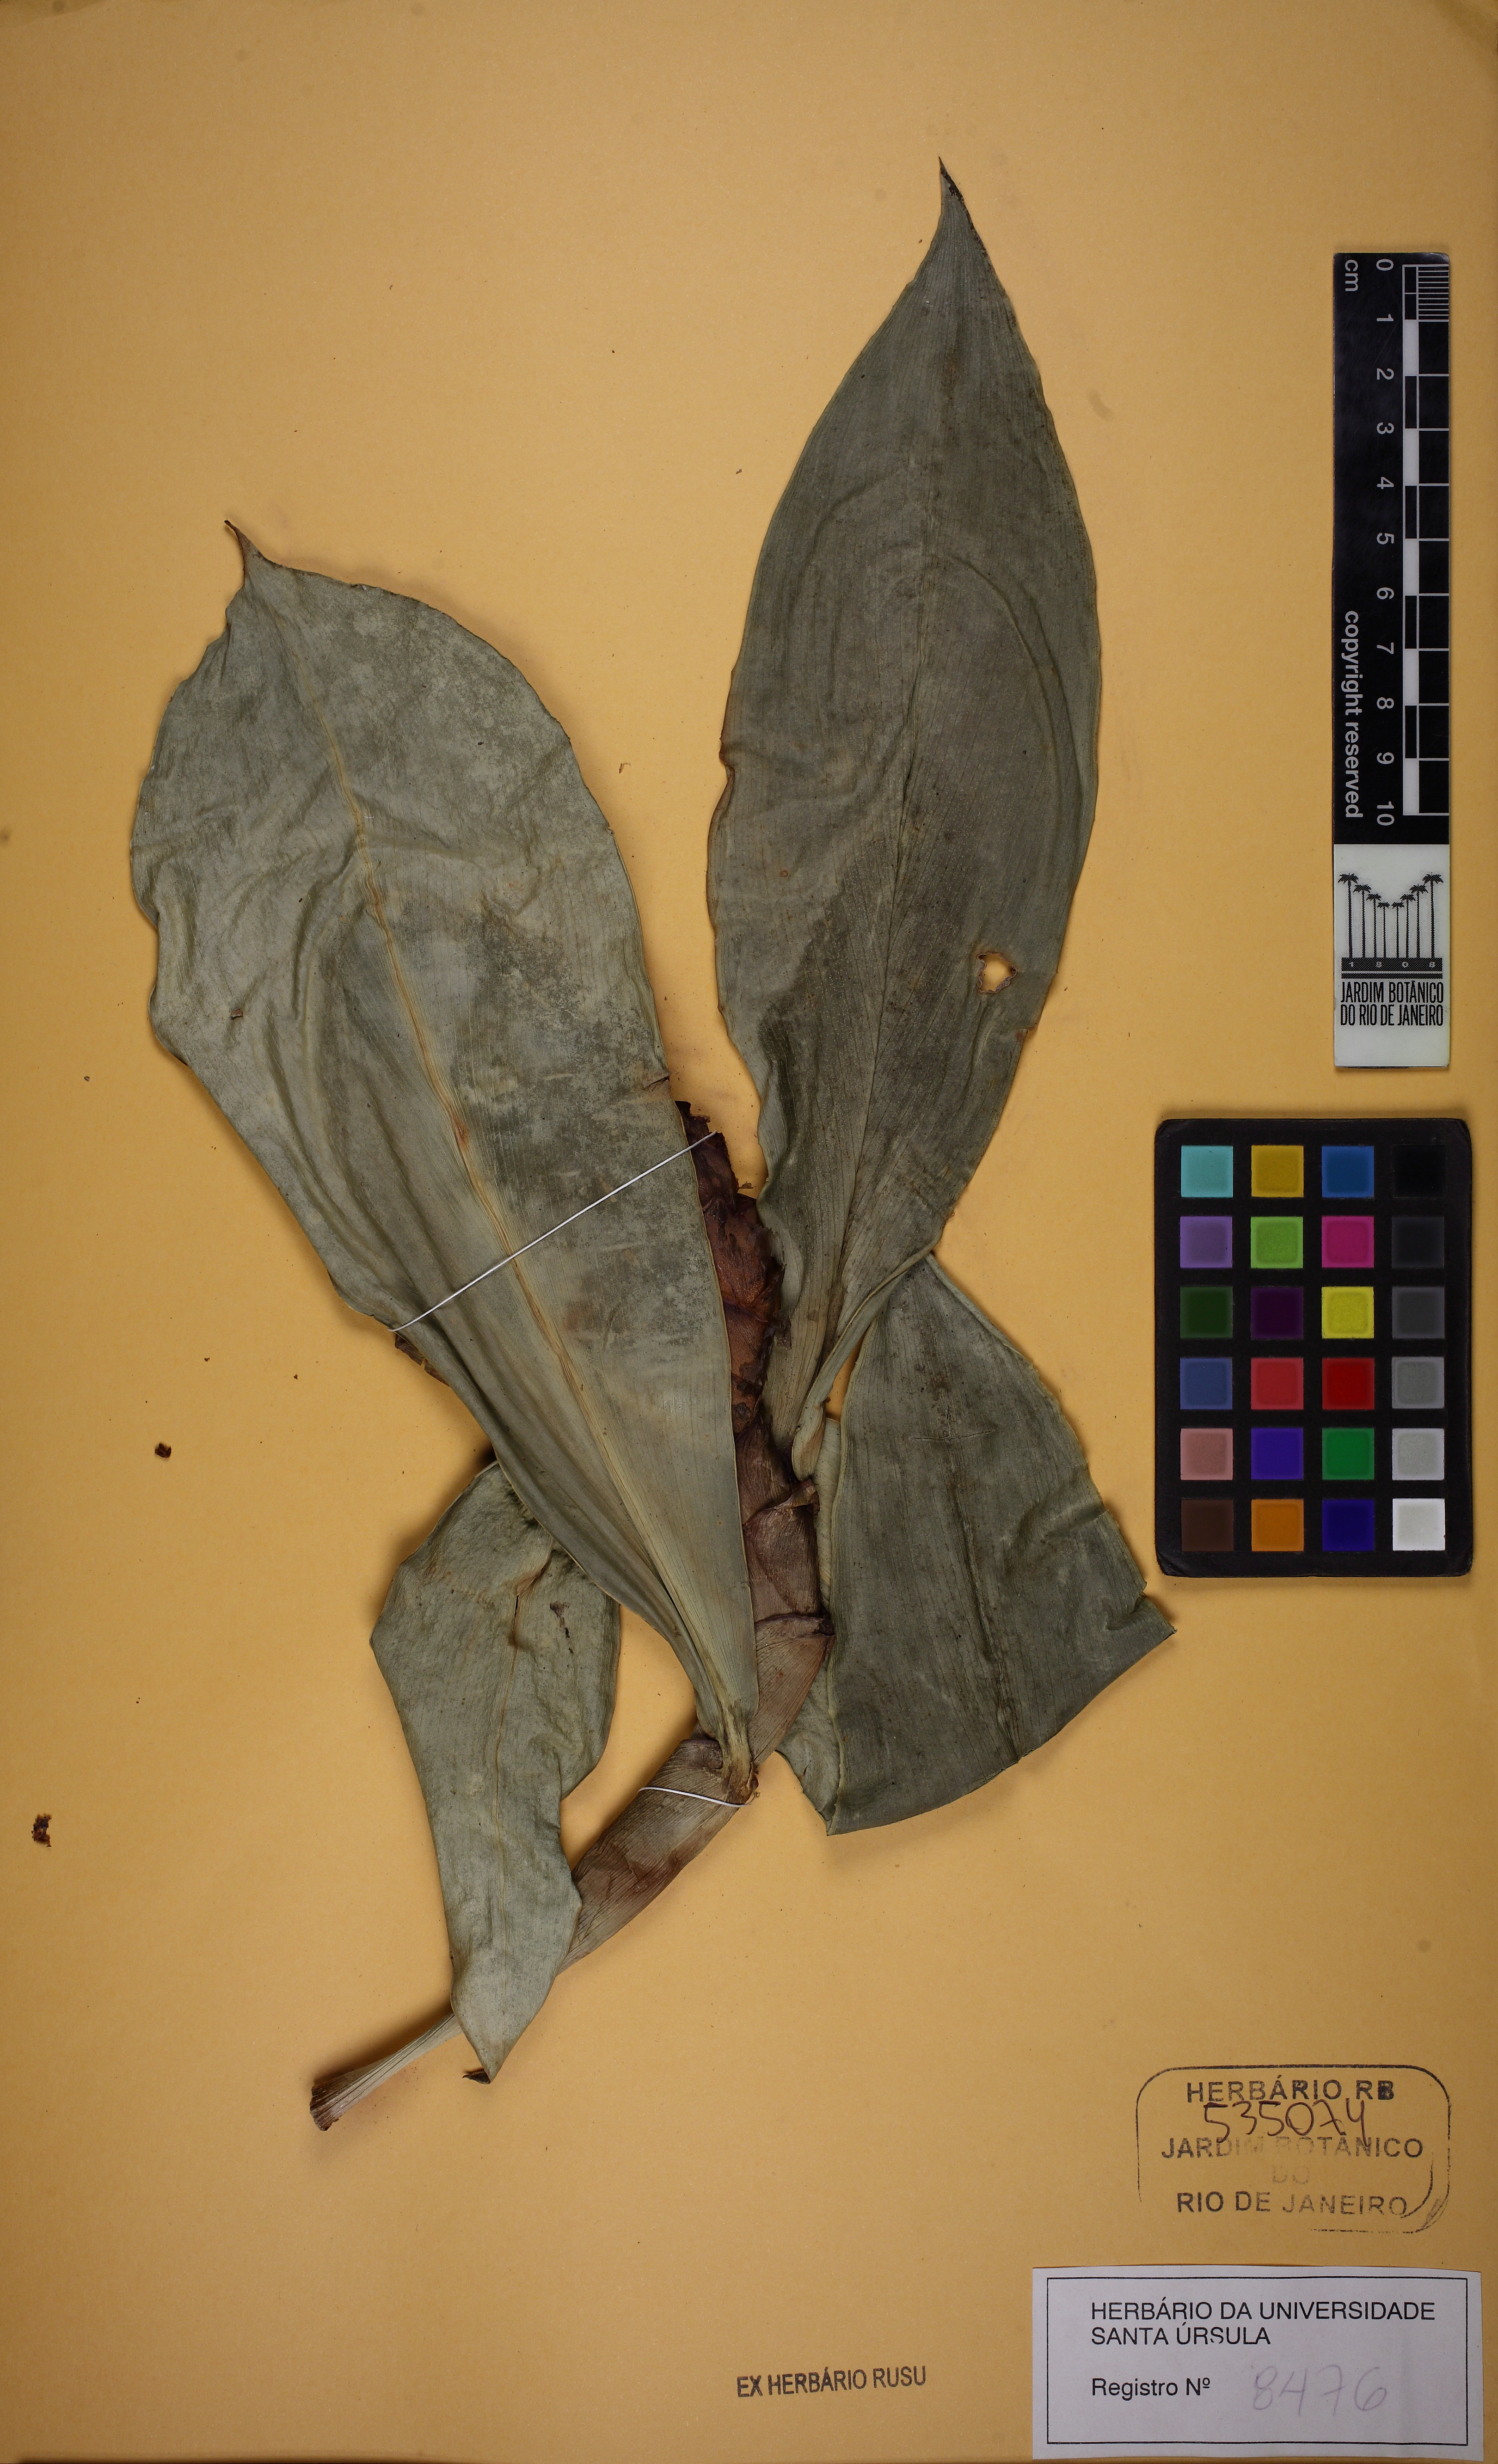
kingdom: Plantae
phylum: Tracheophyta
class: Liliopsida
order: Zingiberales
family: Costaceae
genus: Costus
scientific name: Costus spiralis
